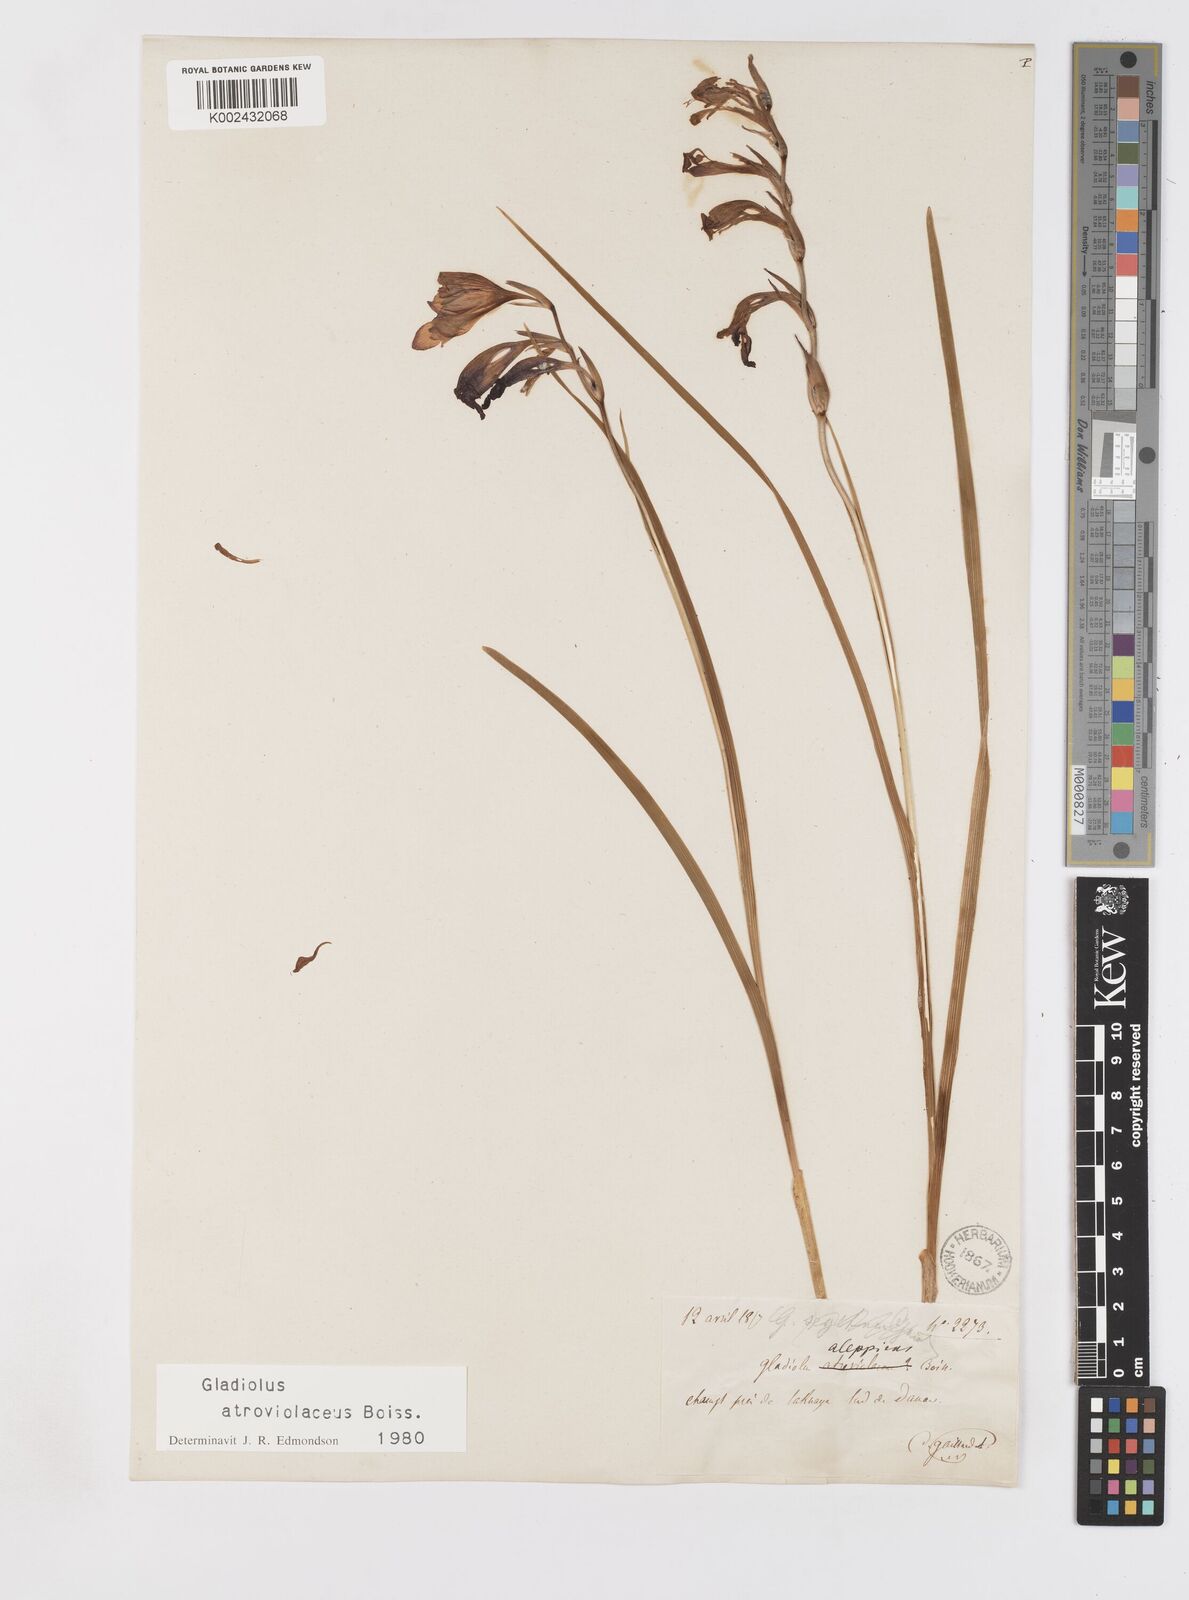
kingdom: Plantae
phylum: Tracheophyta
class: Liliopsida
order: Asparagales
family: Iridaceae
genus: Gladiolus
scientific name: Gladiolus atroviolaceus
